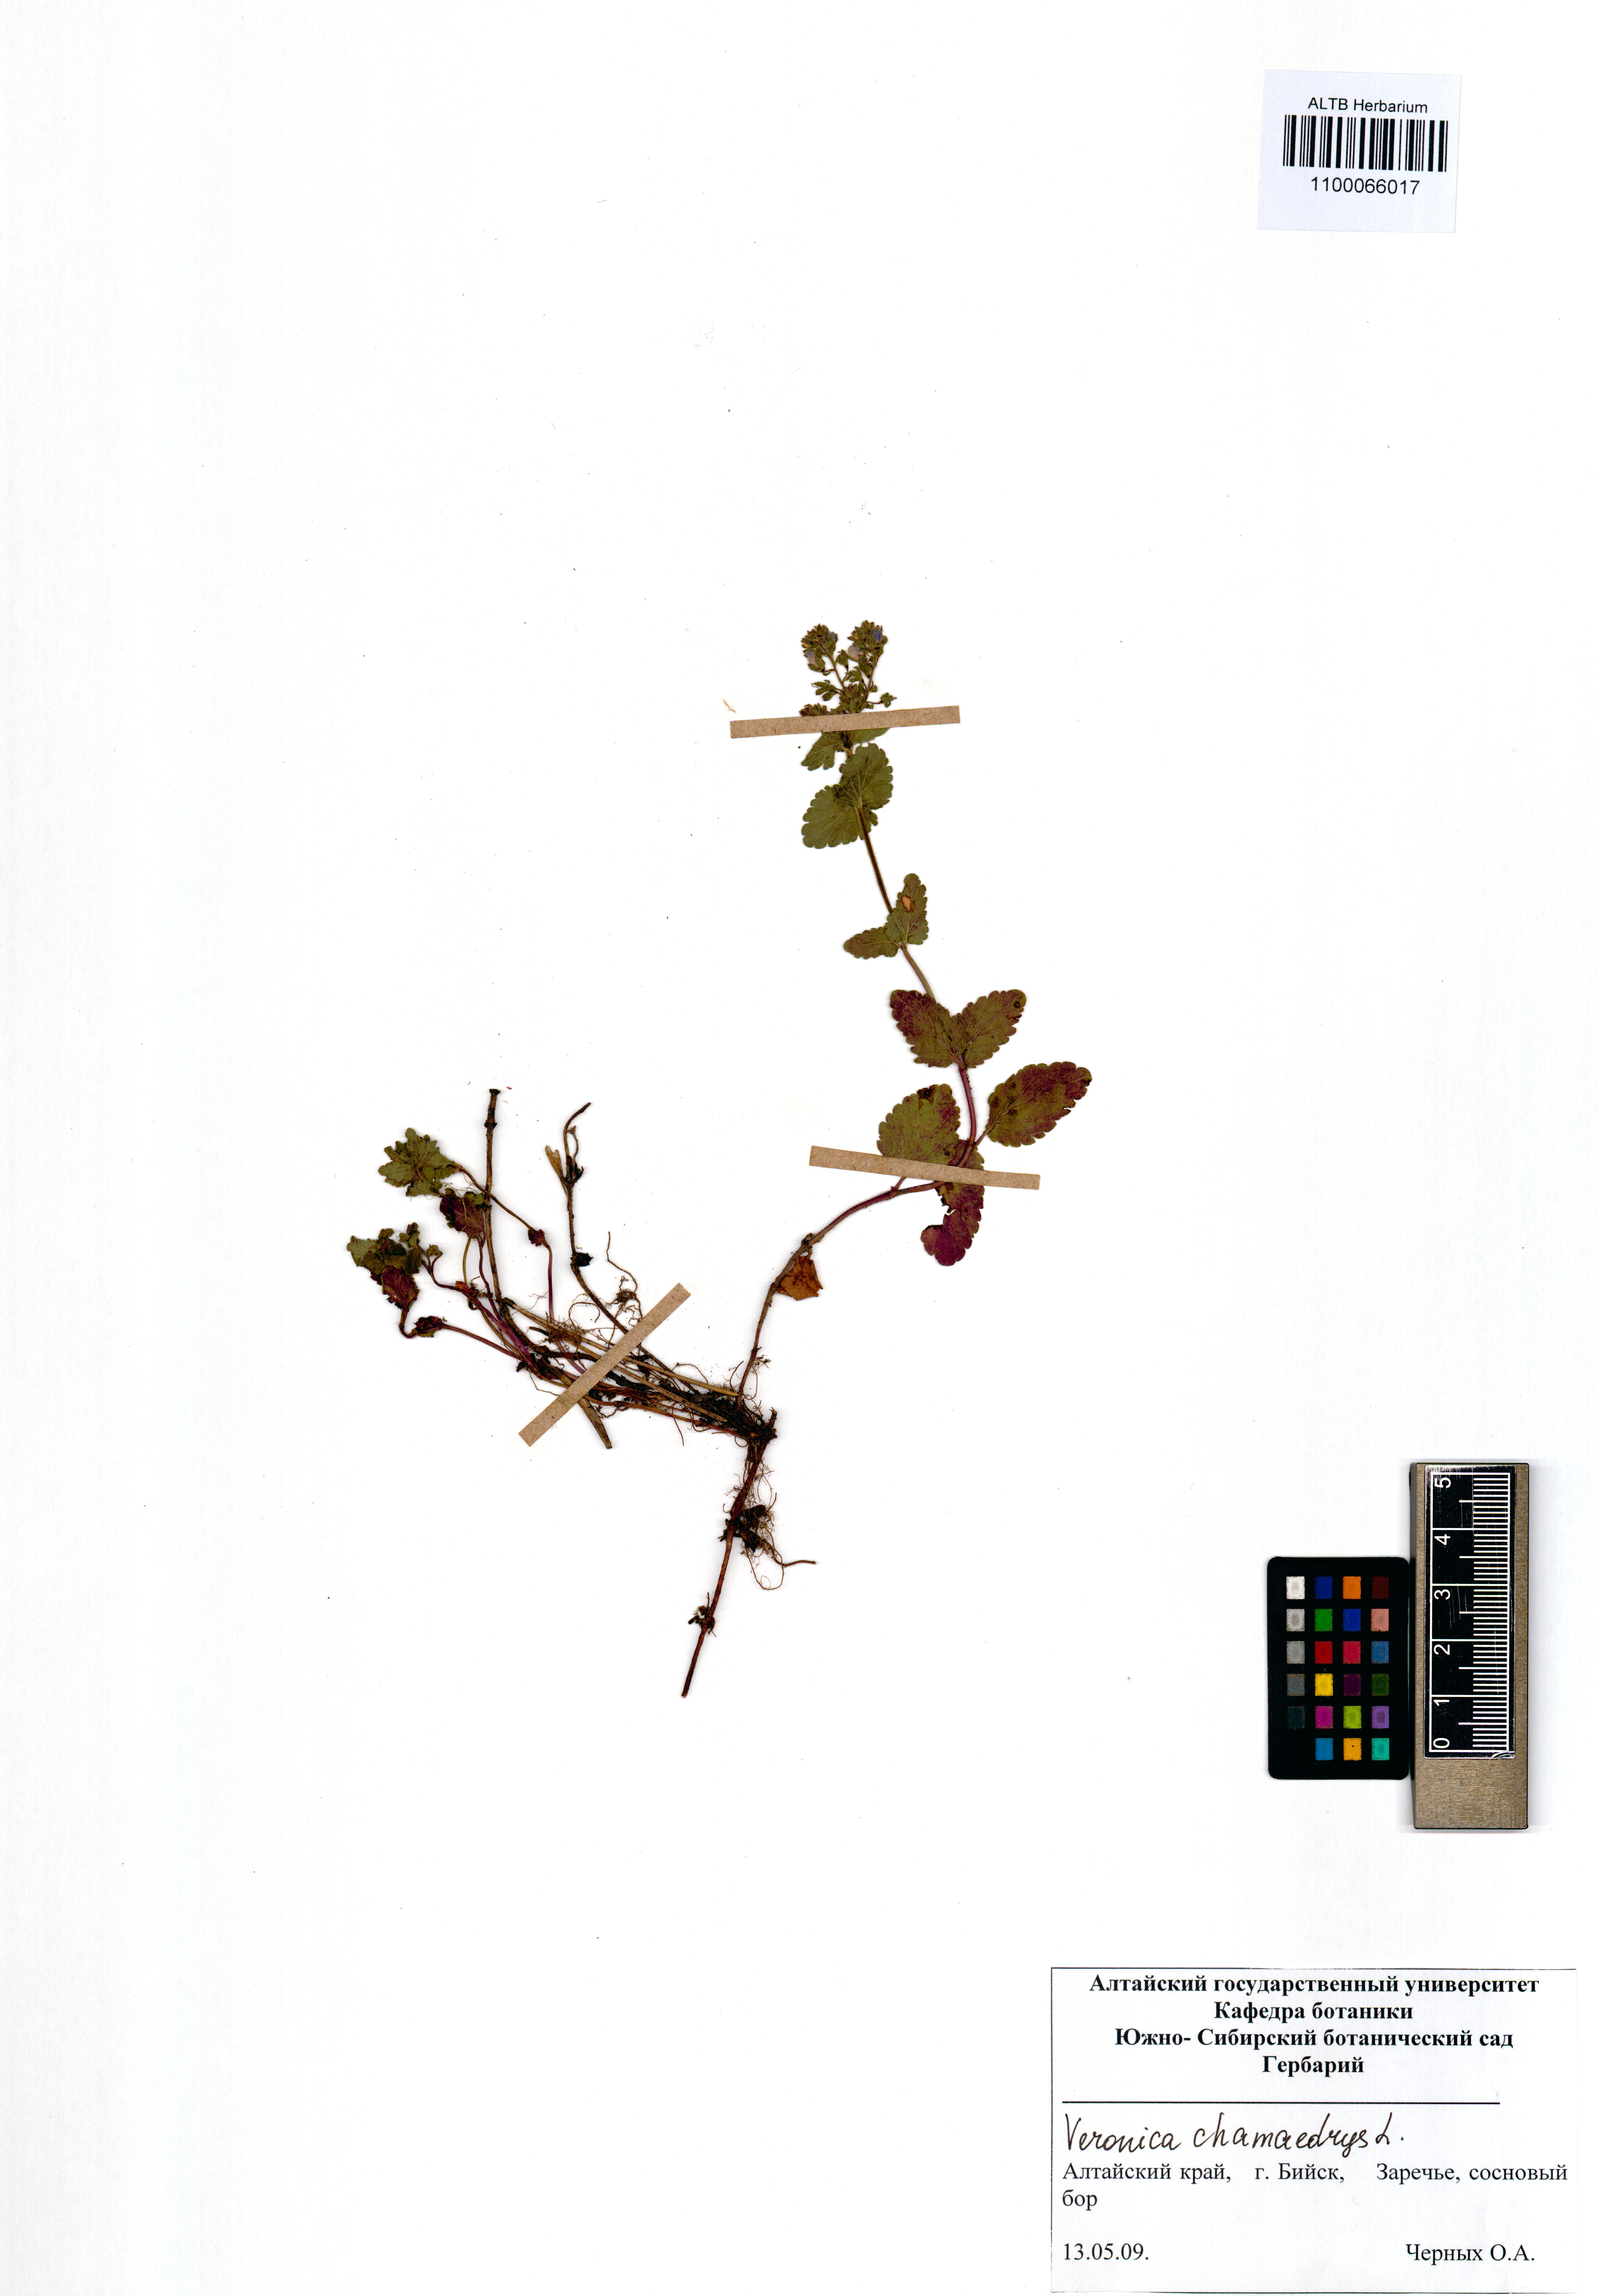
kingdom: Plantae
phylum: Tracheophyta
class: Magnoliopsida
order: Lamiales
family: Plantaginaceae
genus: Veronica
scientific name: Veronica chamaedrys
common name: Germander speedwell
